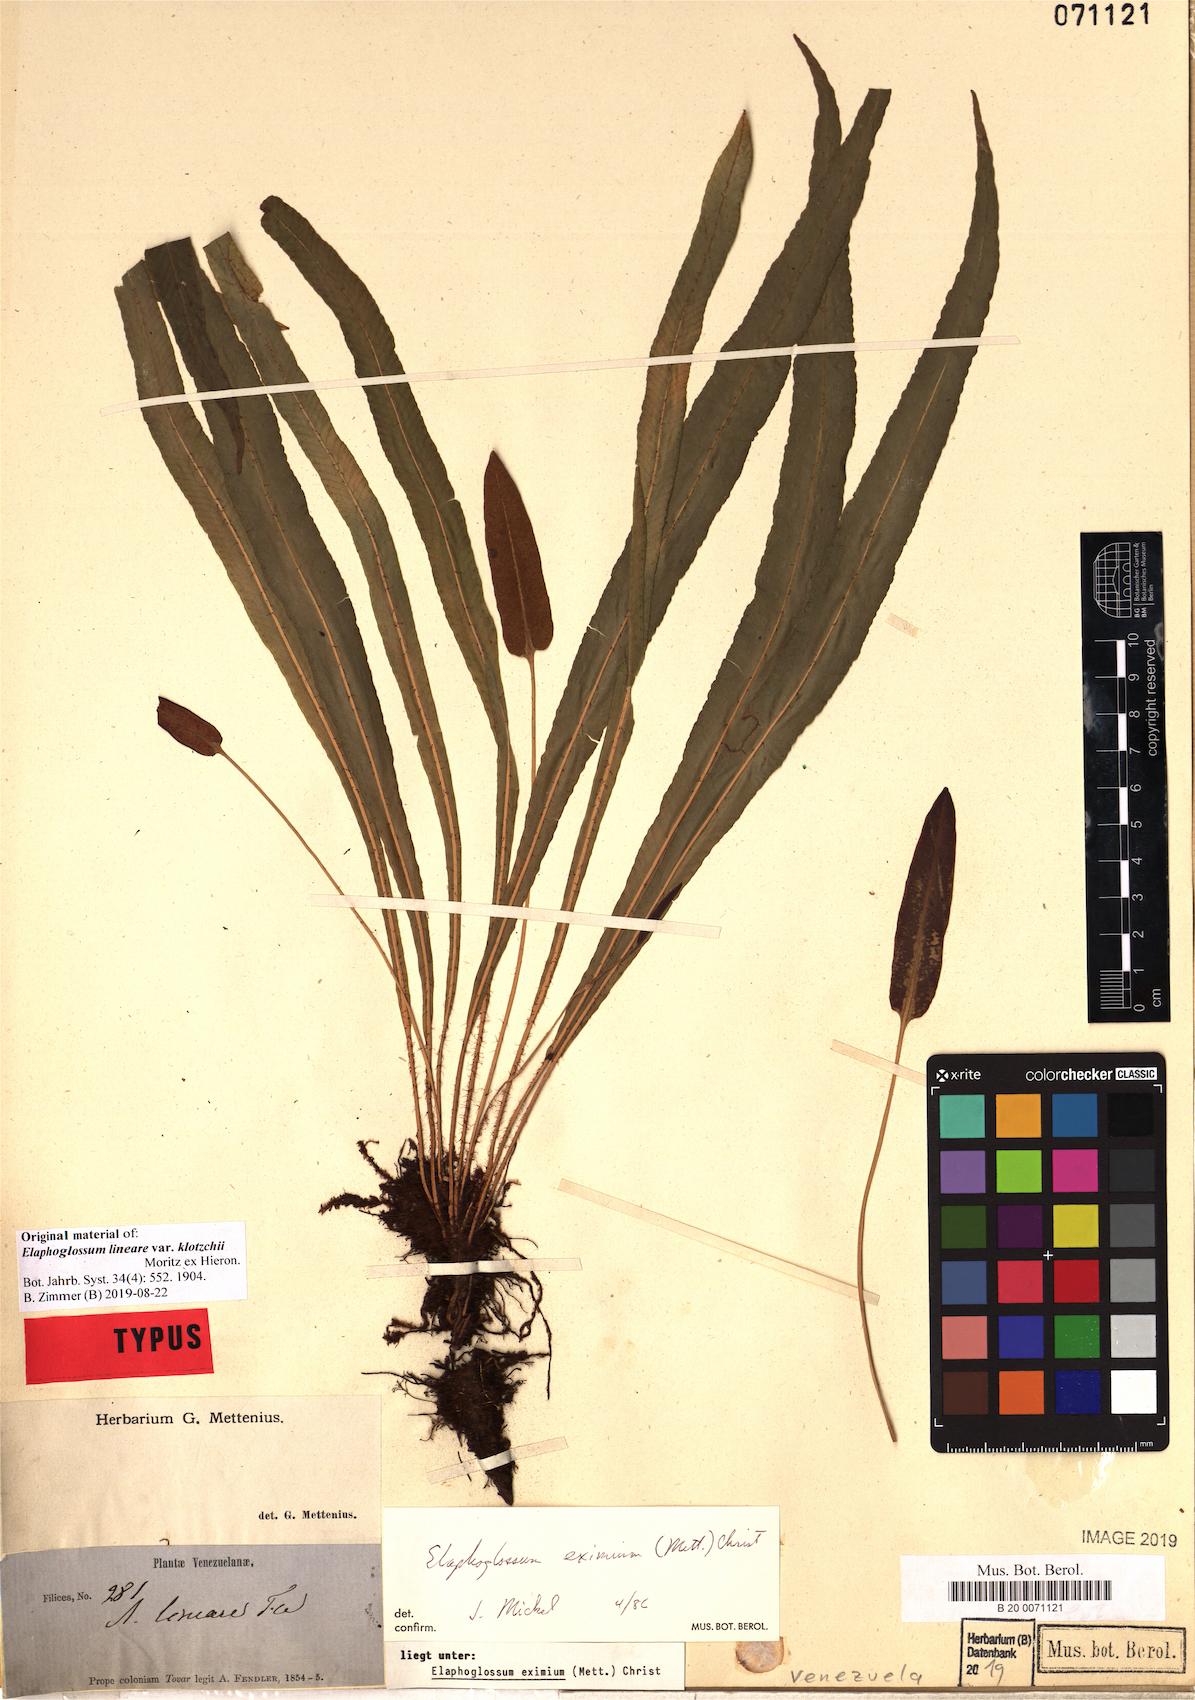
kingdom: Plantae
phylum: Tracheophyta
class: Polypodiopsida
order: Polypodiales
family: Dryopteridaceae
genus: Elaphoglossum
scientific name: Elaphoglossum eximium
